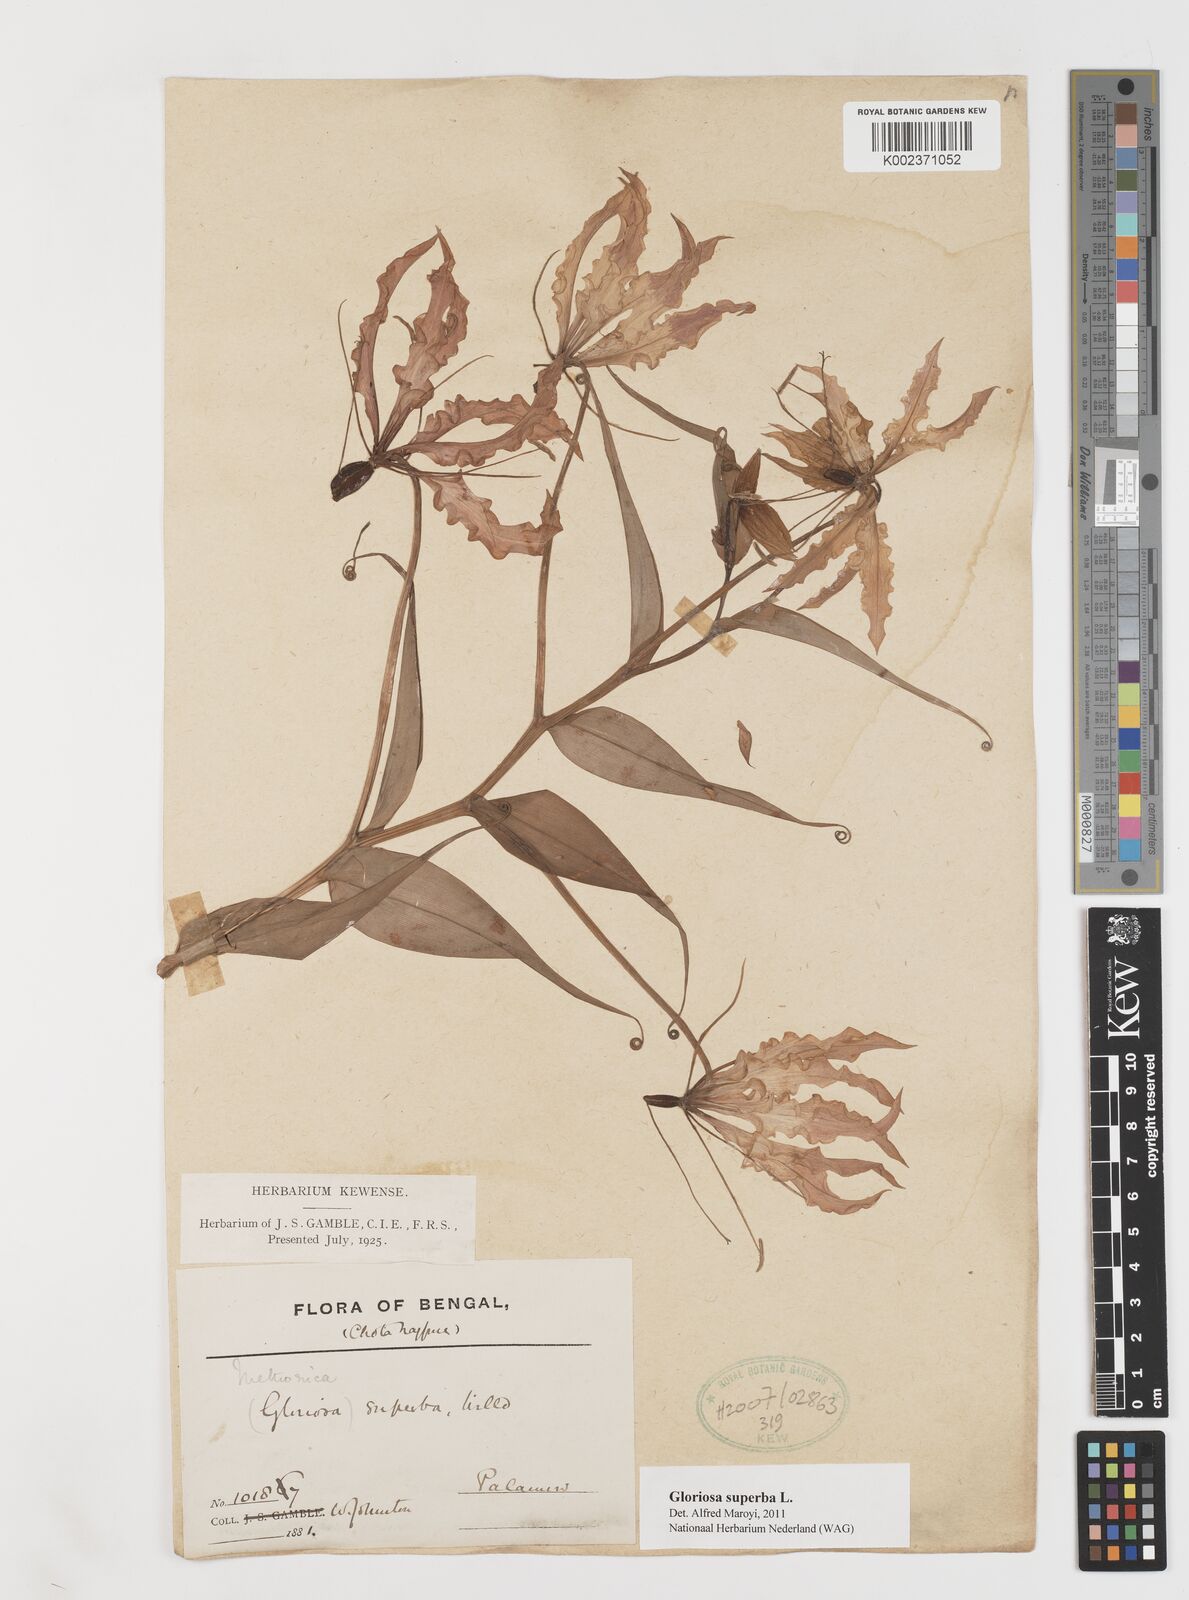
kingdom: Plantae
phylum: Tracheophyta
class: Liliopsida
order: Liliales
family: Colchicaceae
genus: Gloriosa
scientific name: Gloriosa
